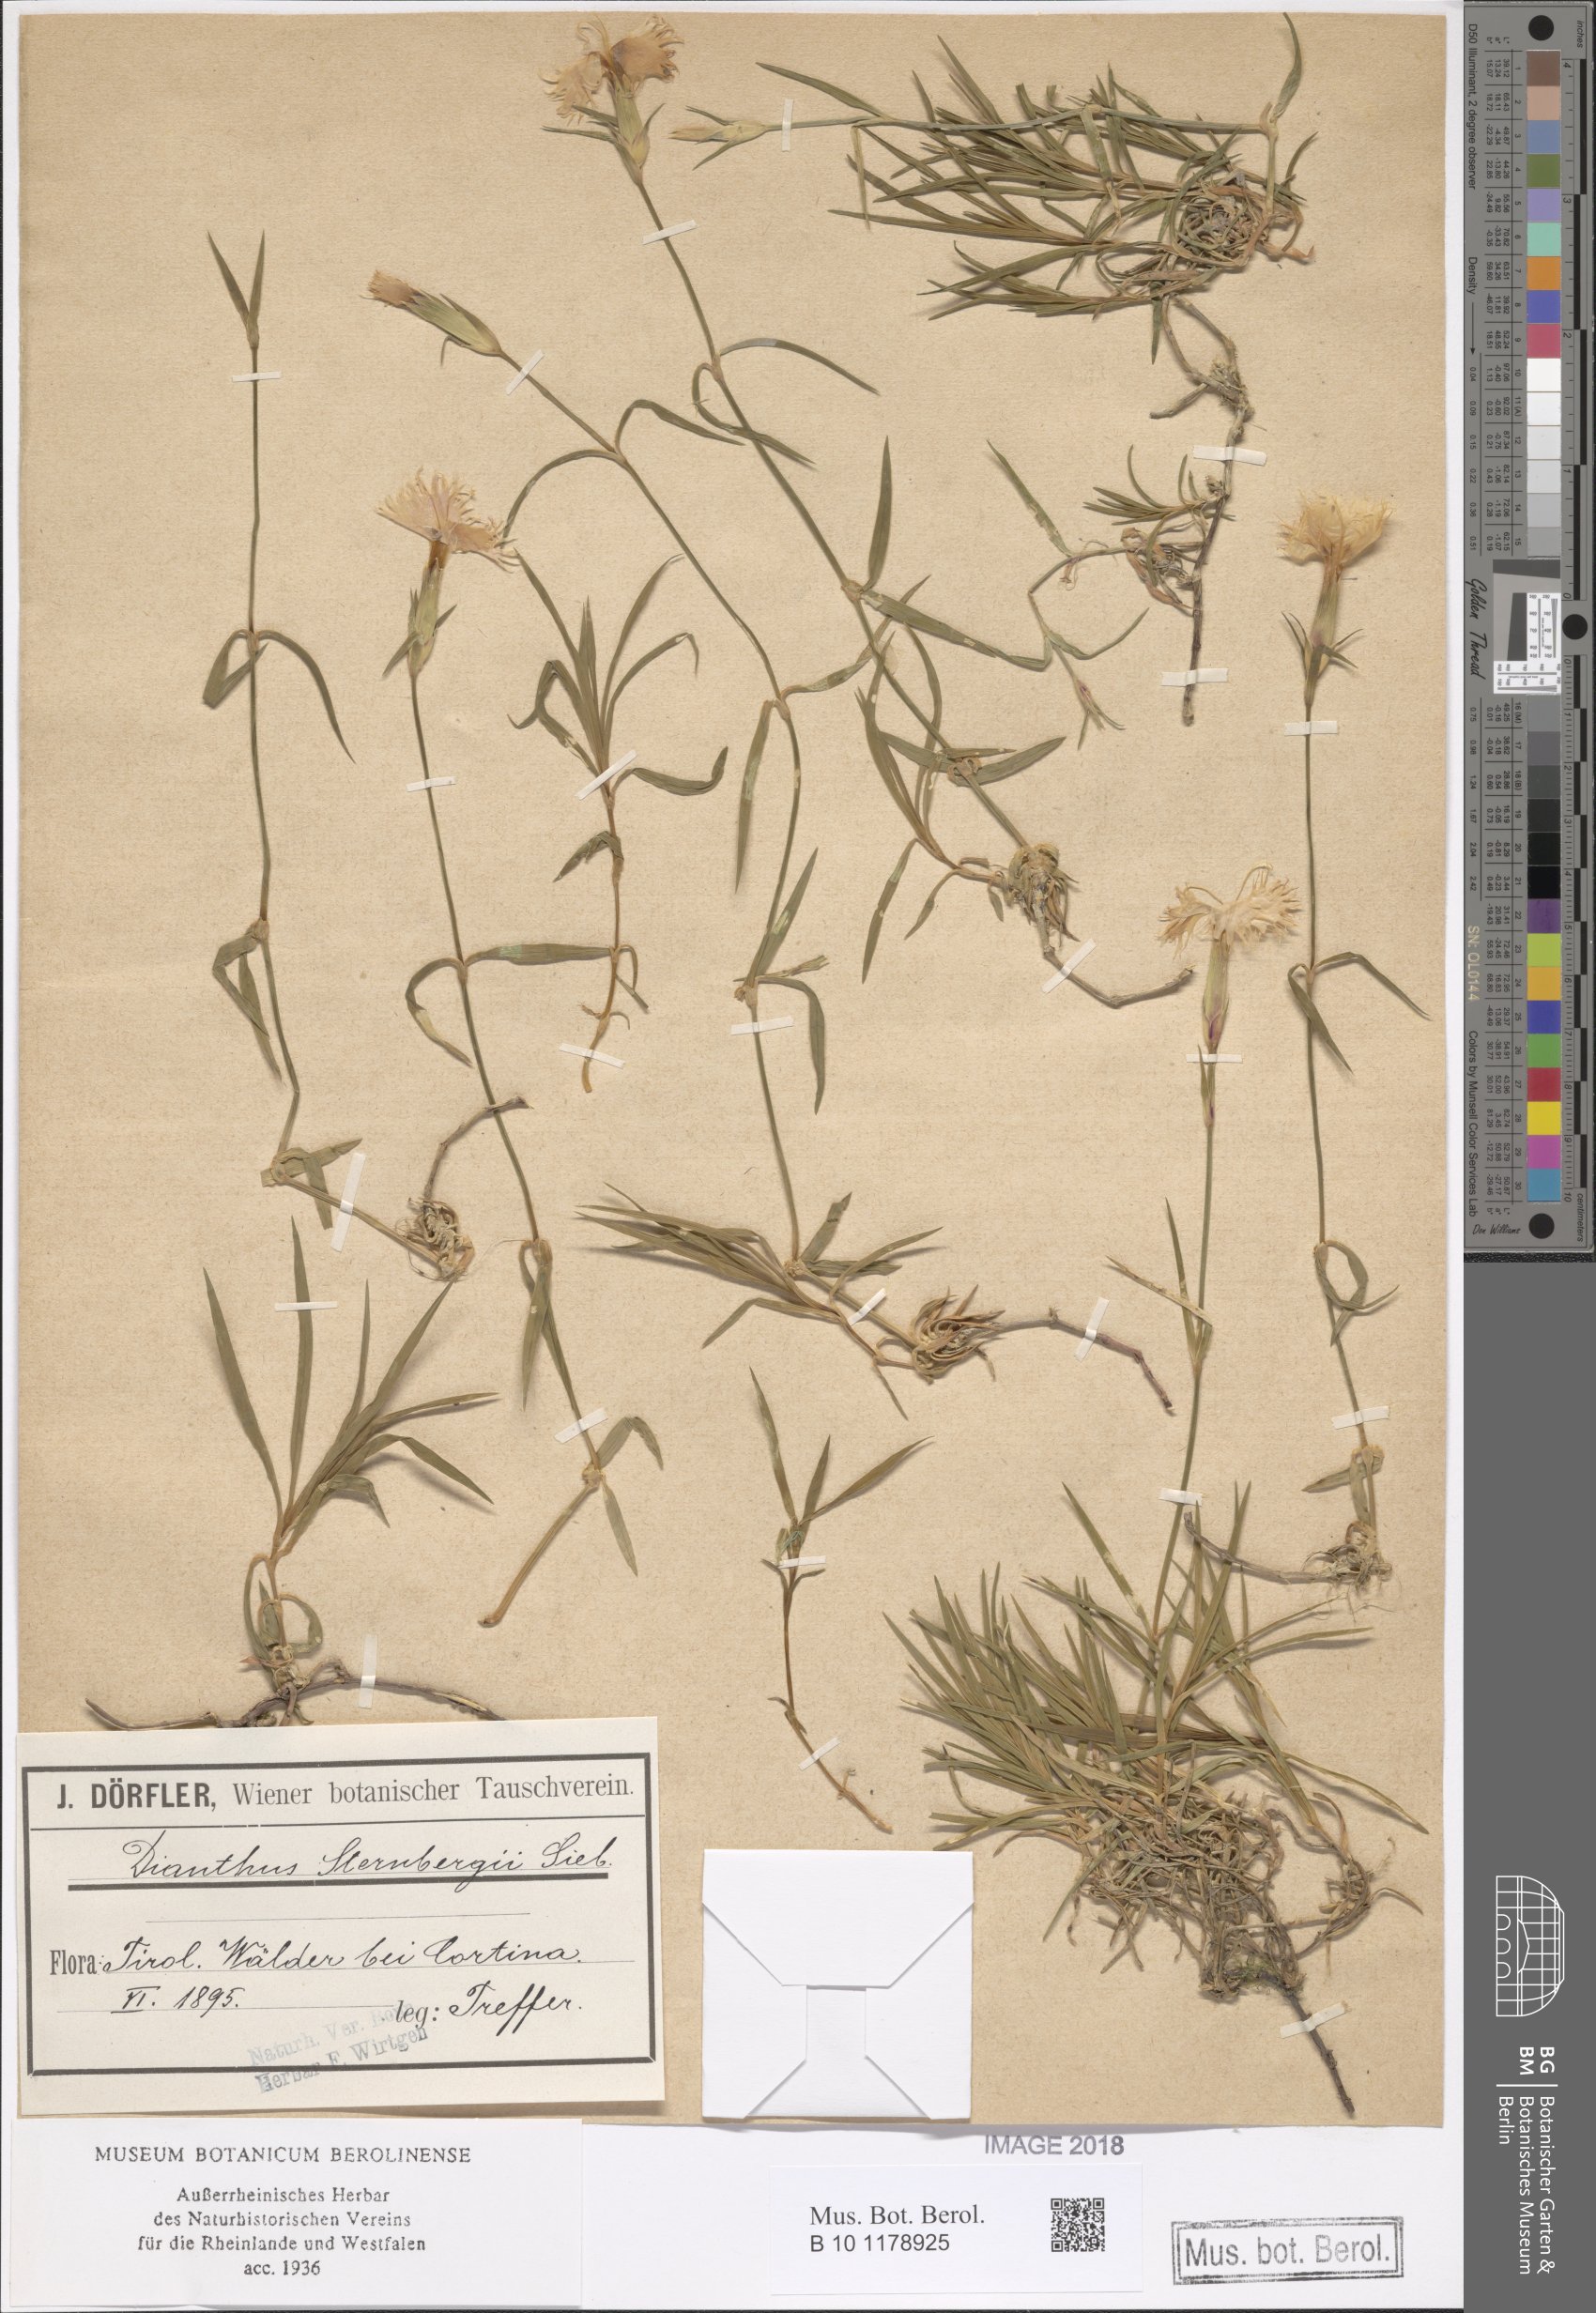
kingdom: Plantae
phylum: Tracheophyta
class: Magnoliopsida
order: Caryophyllales
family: Caryophyllaceae
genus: Dianthus
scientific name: Dianthus hyssopifolius
